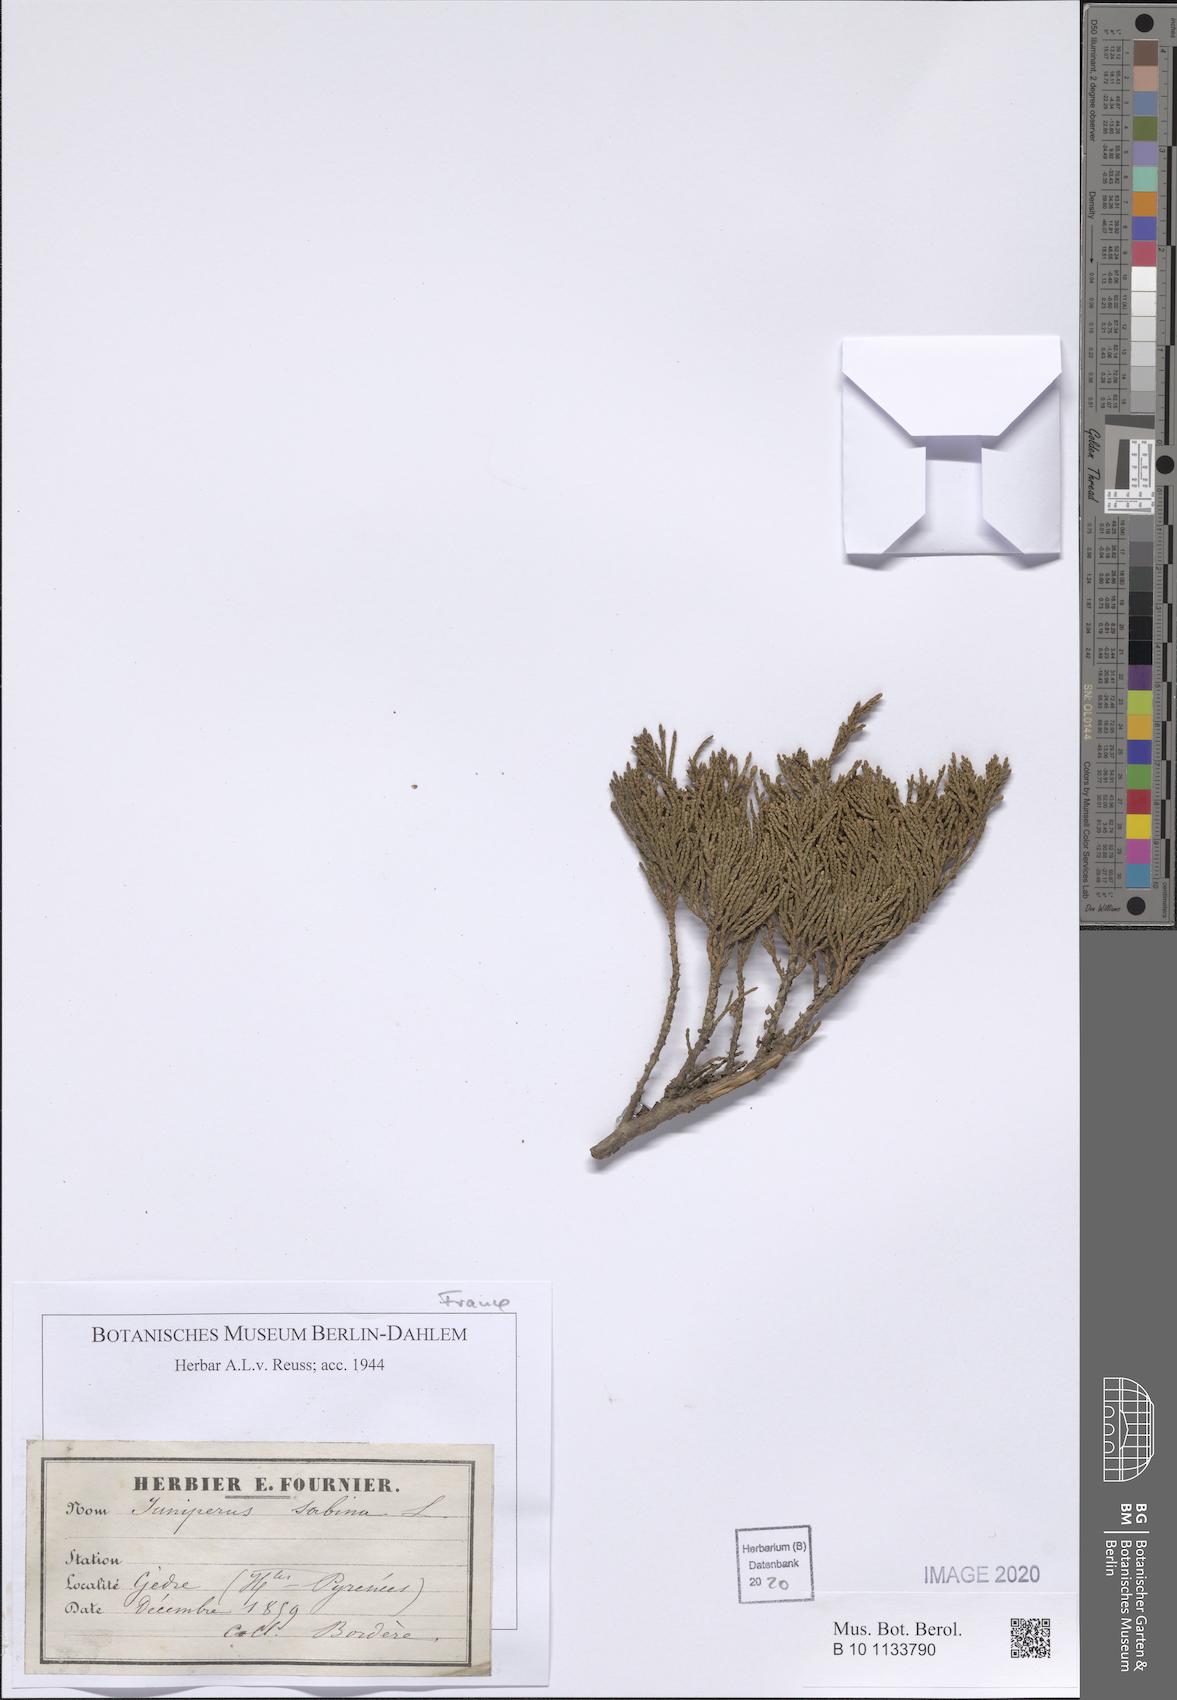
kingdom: Plantae
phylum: Tracheophyta
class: Pinopsida
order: Pinales
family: Cupressaceae
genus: Juniperus
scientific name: Juniperus sabina
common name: Savin
